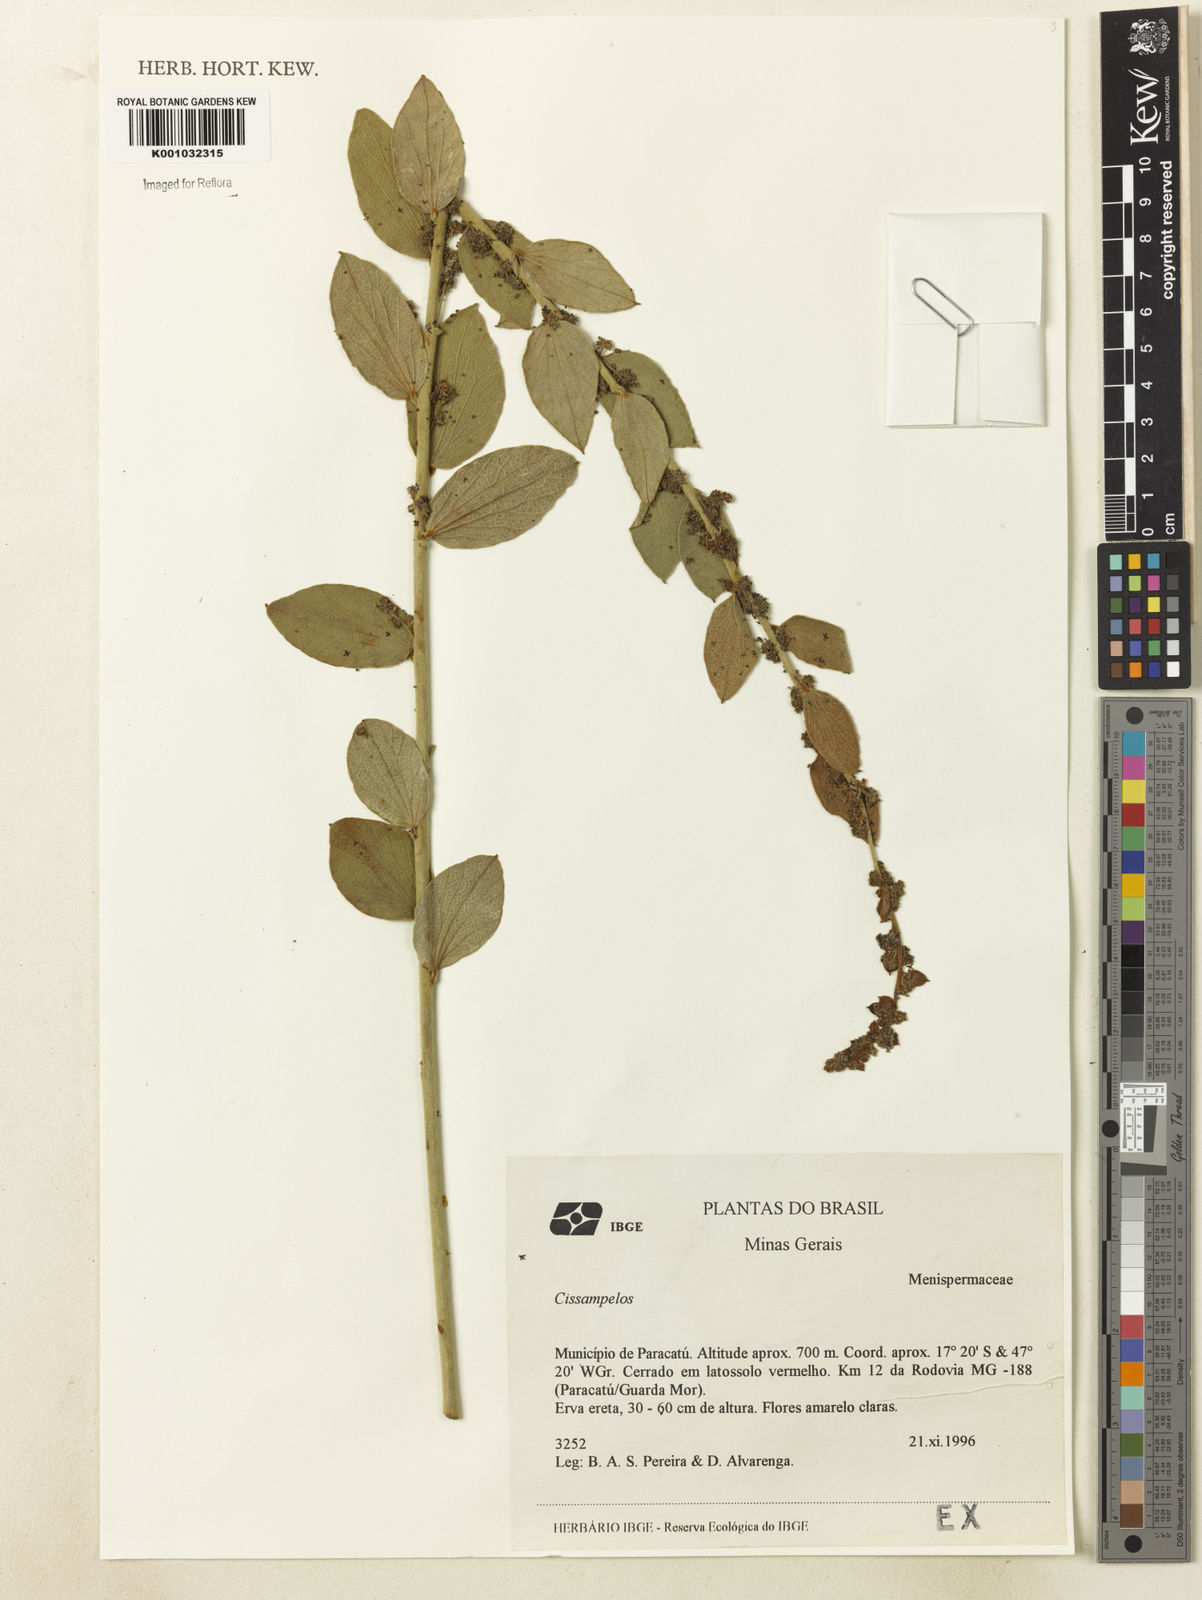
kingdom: Plantae
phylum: Tracheophyta
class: Magnoliopsida
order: Ranunculales
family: Menispermaceae
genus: Cissampelos
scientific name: Cissampelos
